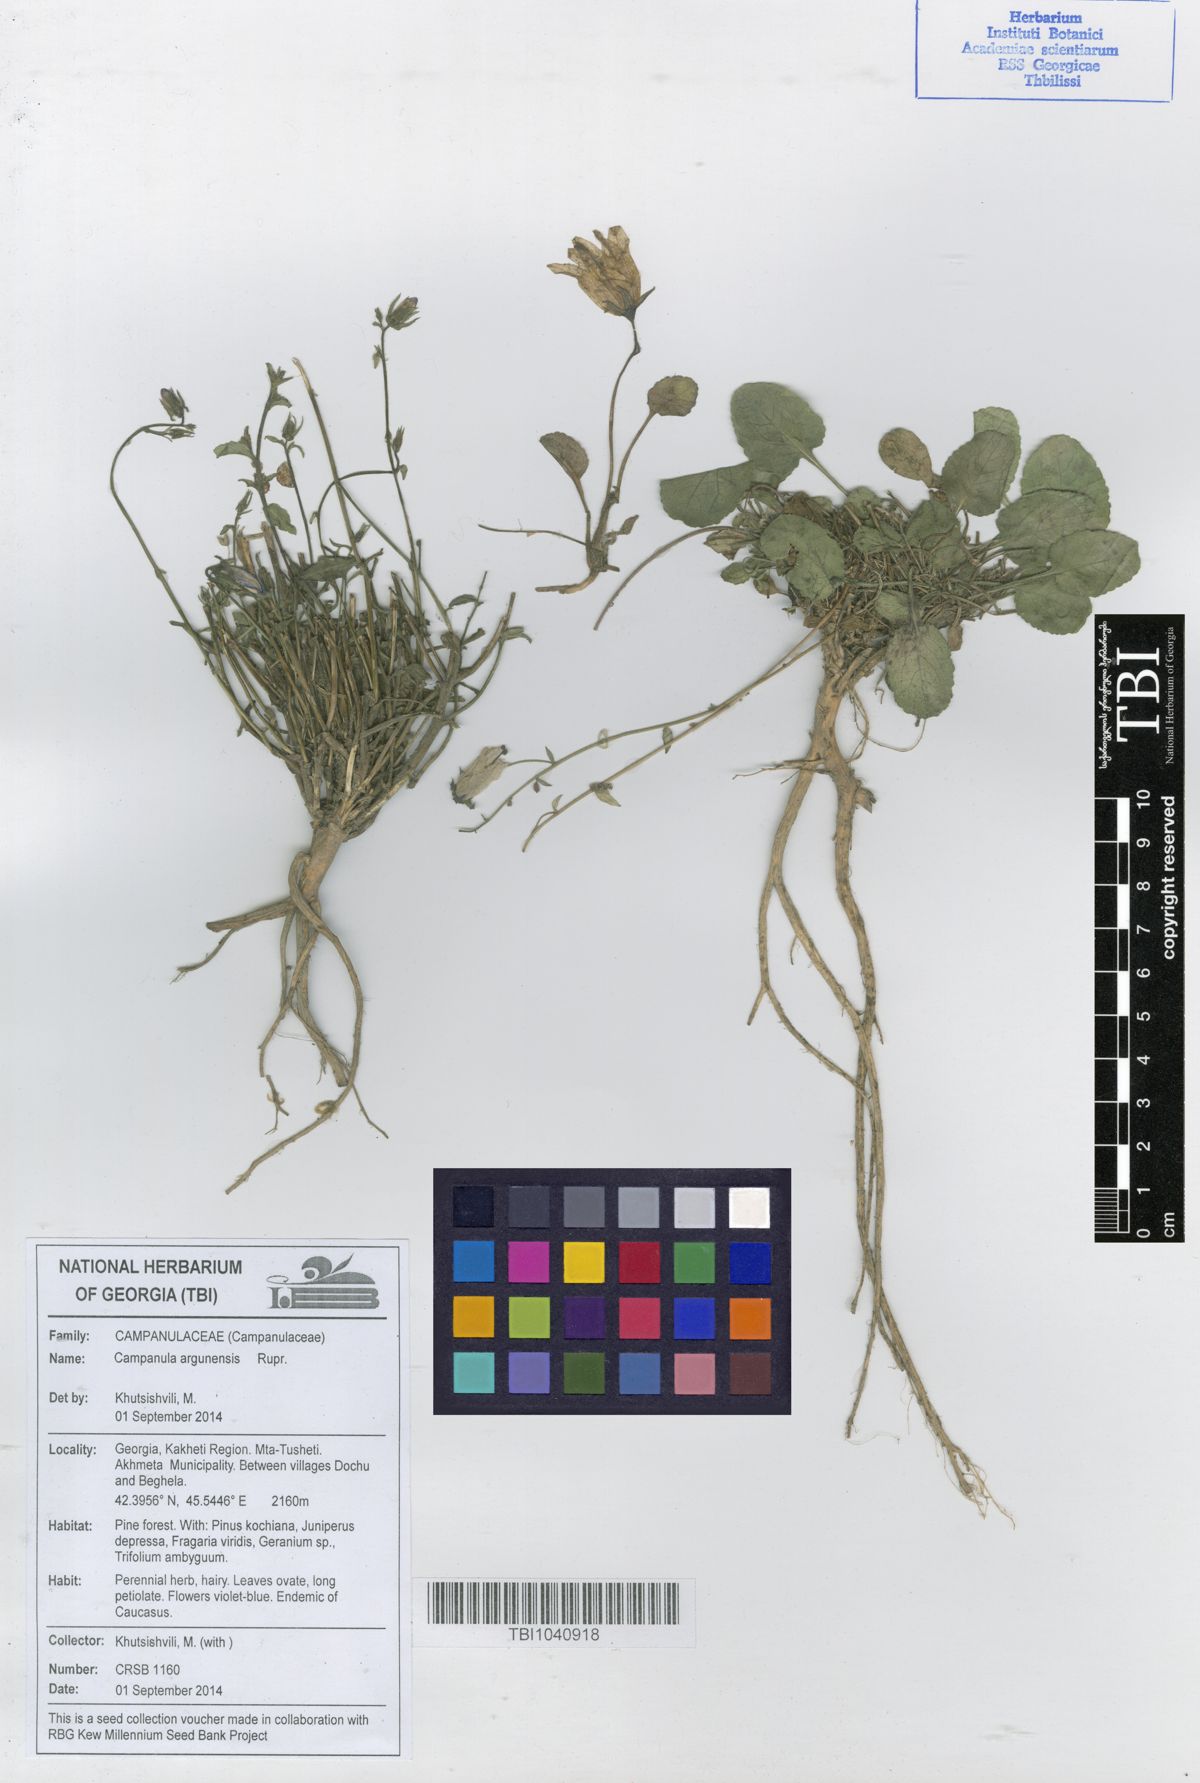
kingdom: Plantae
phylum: Tracheophyta
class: Magnoliopsida
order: Asterales
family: Campanulaceae
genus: Campanula
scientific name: Campanula bellidifolia
